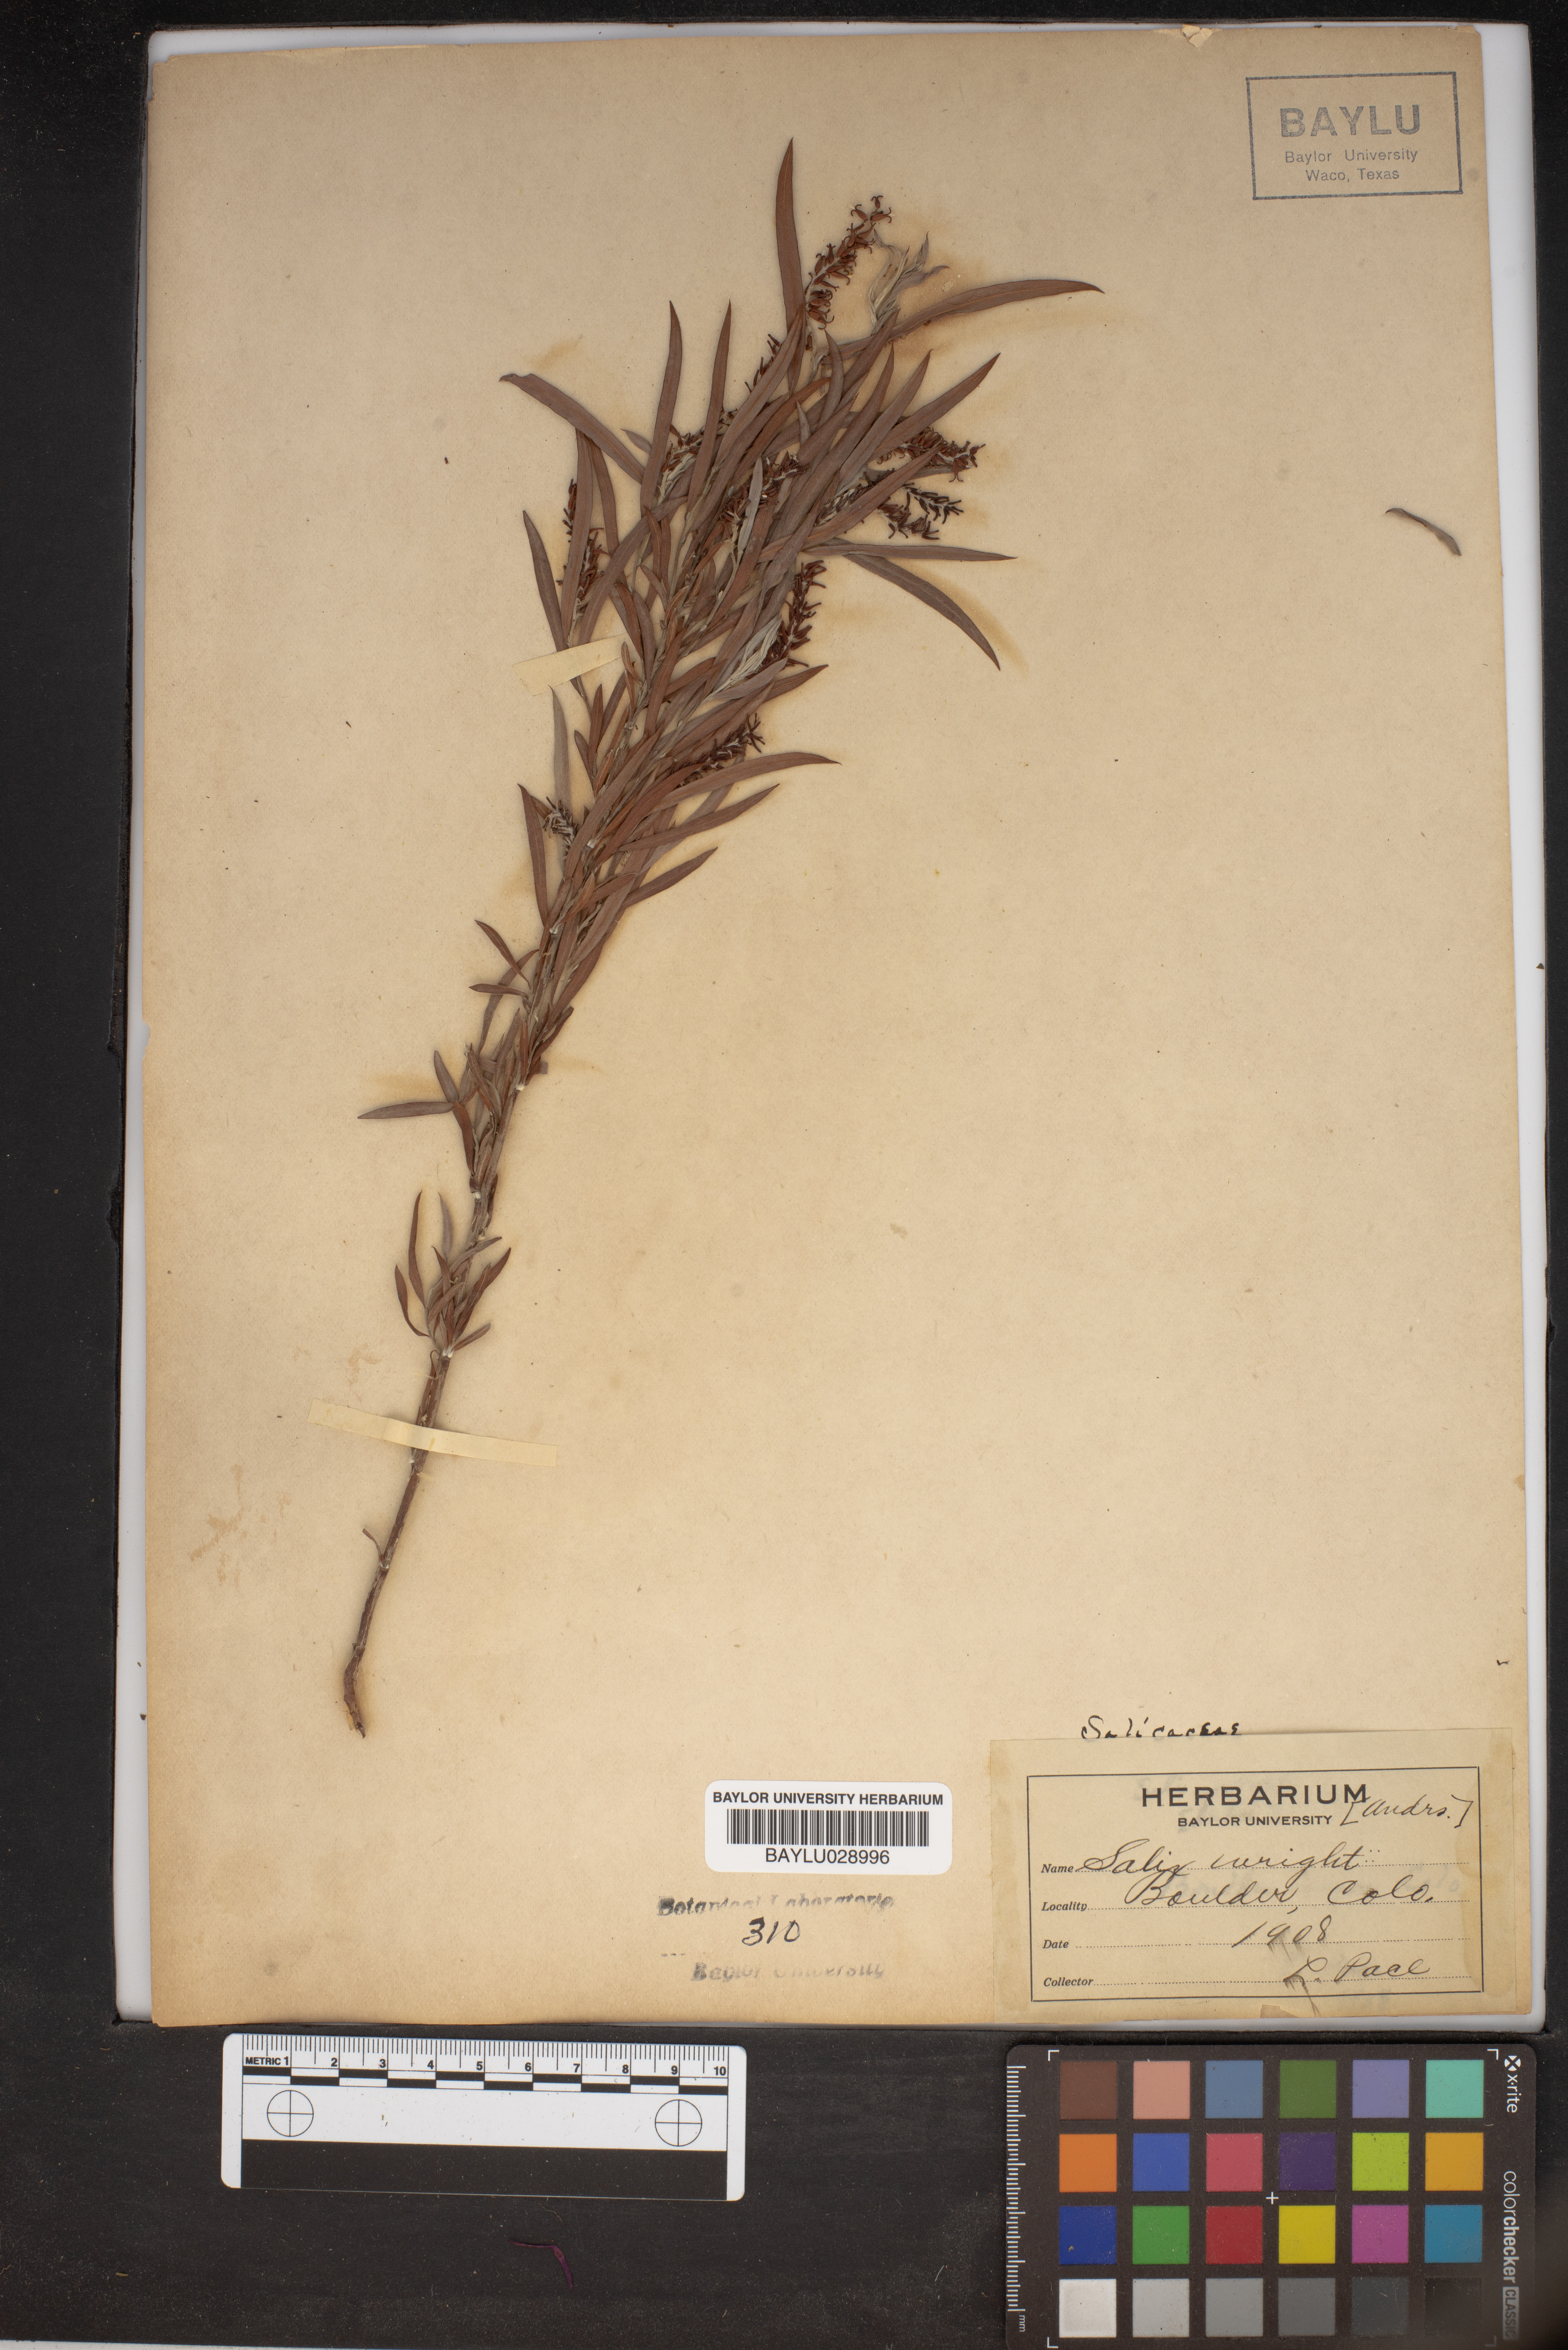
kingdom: Plantae
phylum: Tracheophyta
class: Magnoliopsida
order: Malpighiales
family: Salicaceae
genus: Salix
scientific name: Salix wrightii
